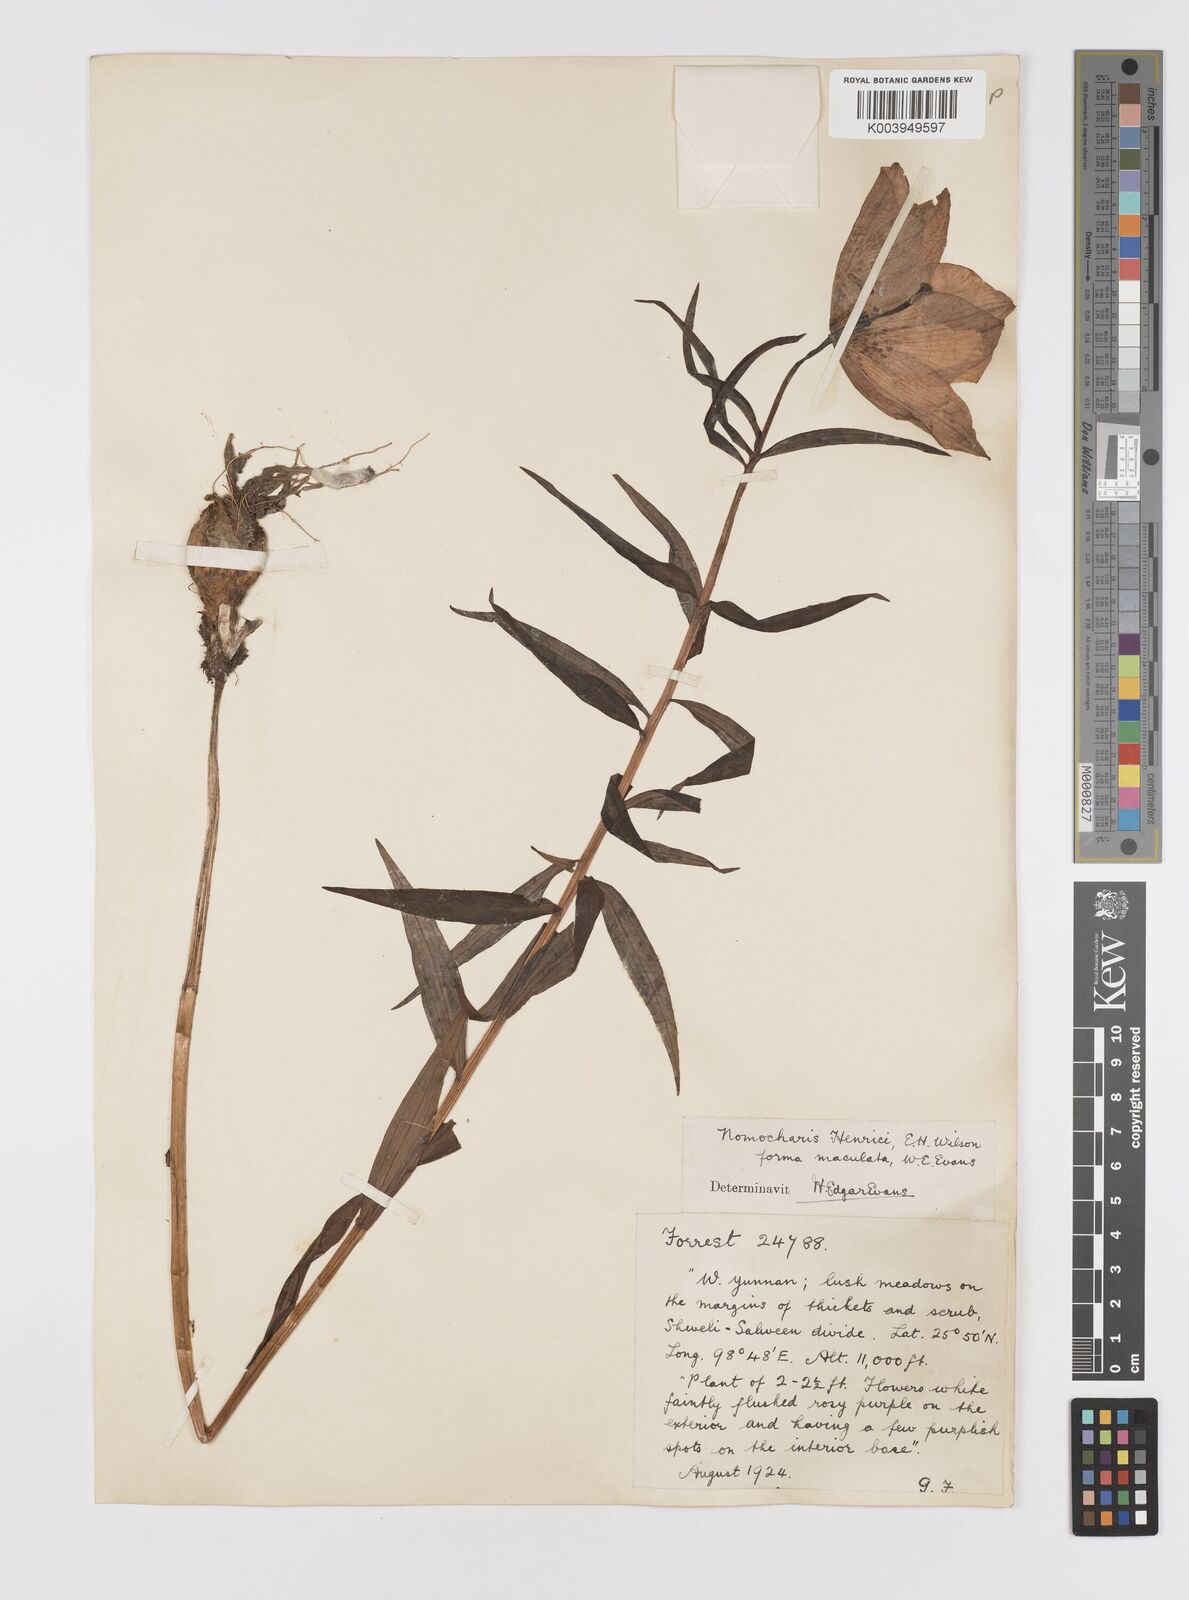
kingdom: Plantae
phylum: Tracheophyta
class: Liliopsida
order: Liliales
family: Liliaceae
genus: Lilium
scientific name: Lilium henrici
